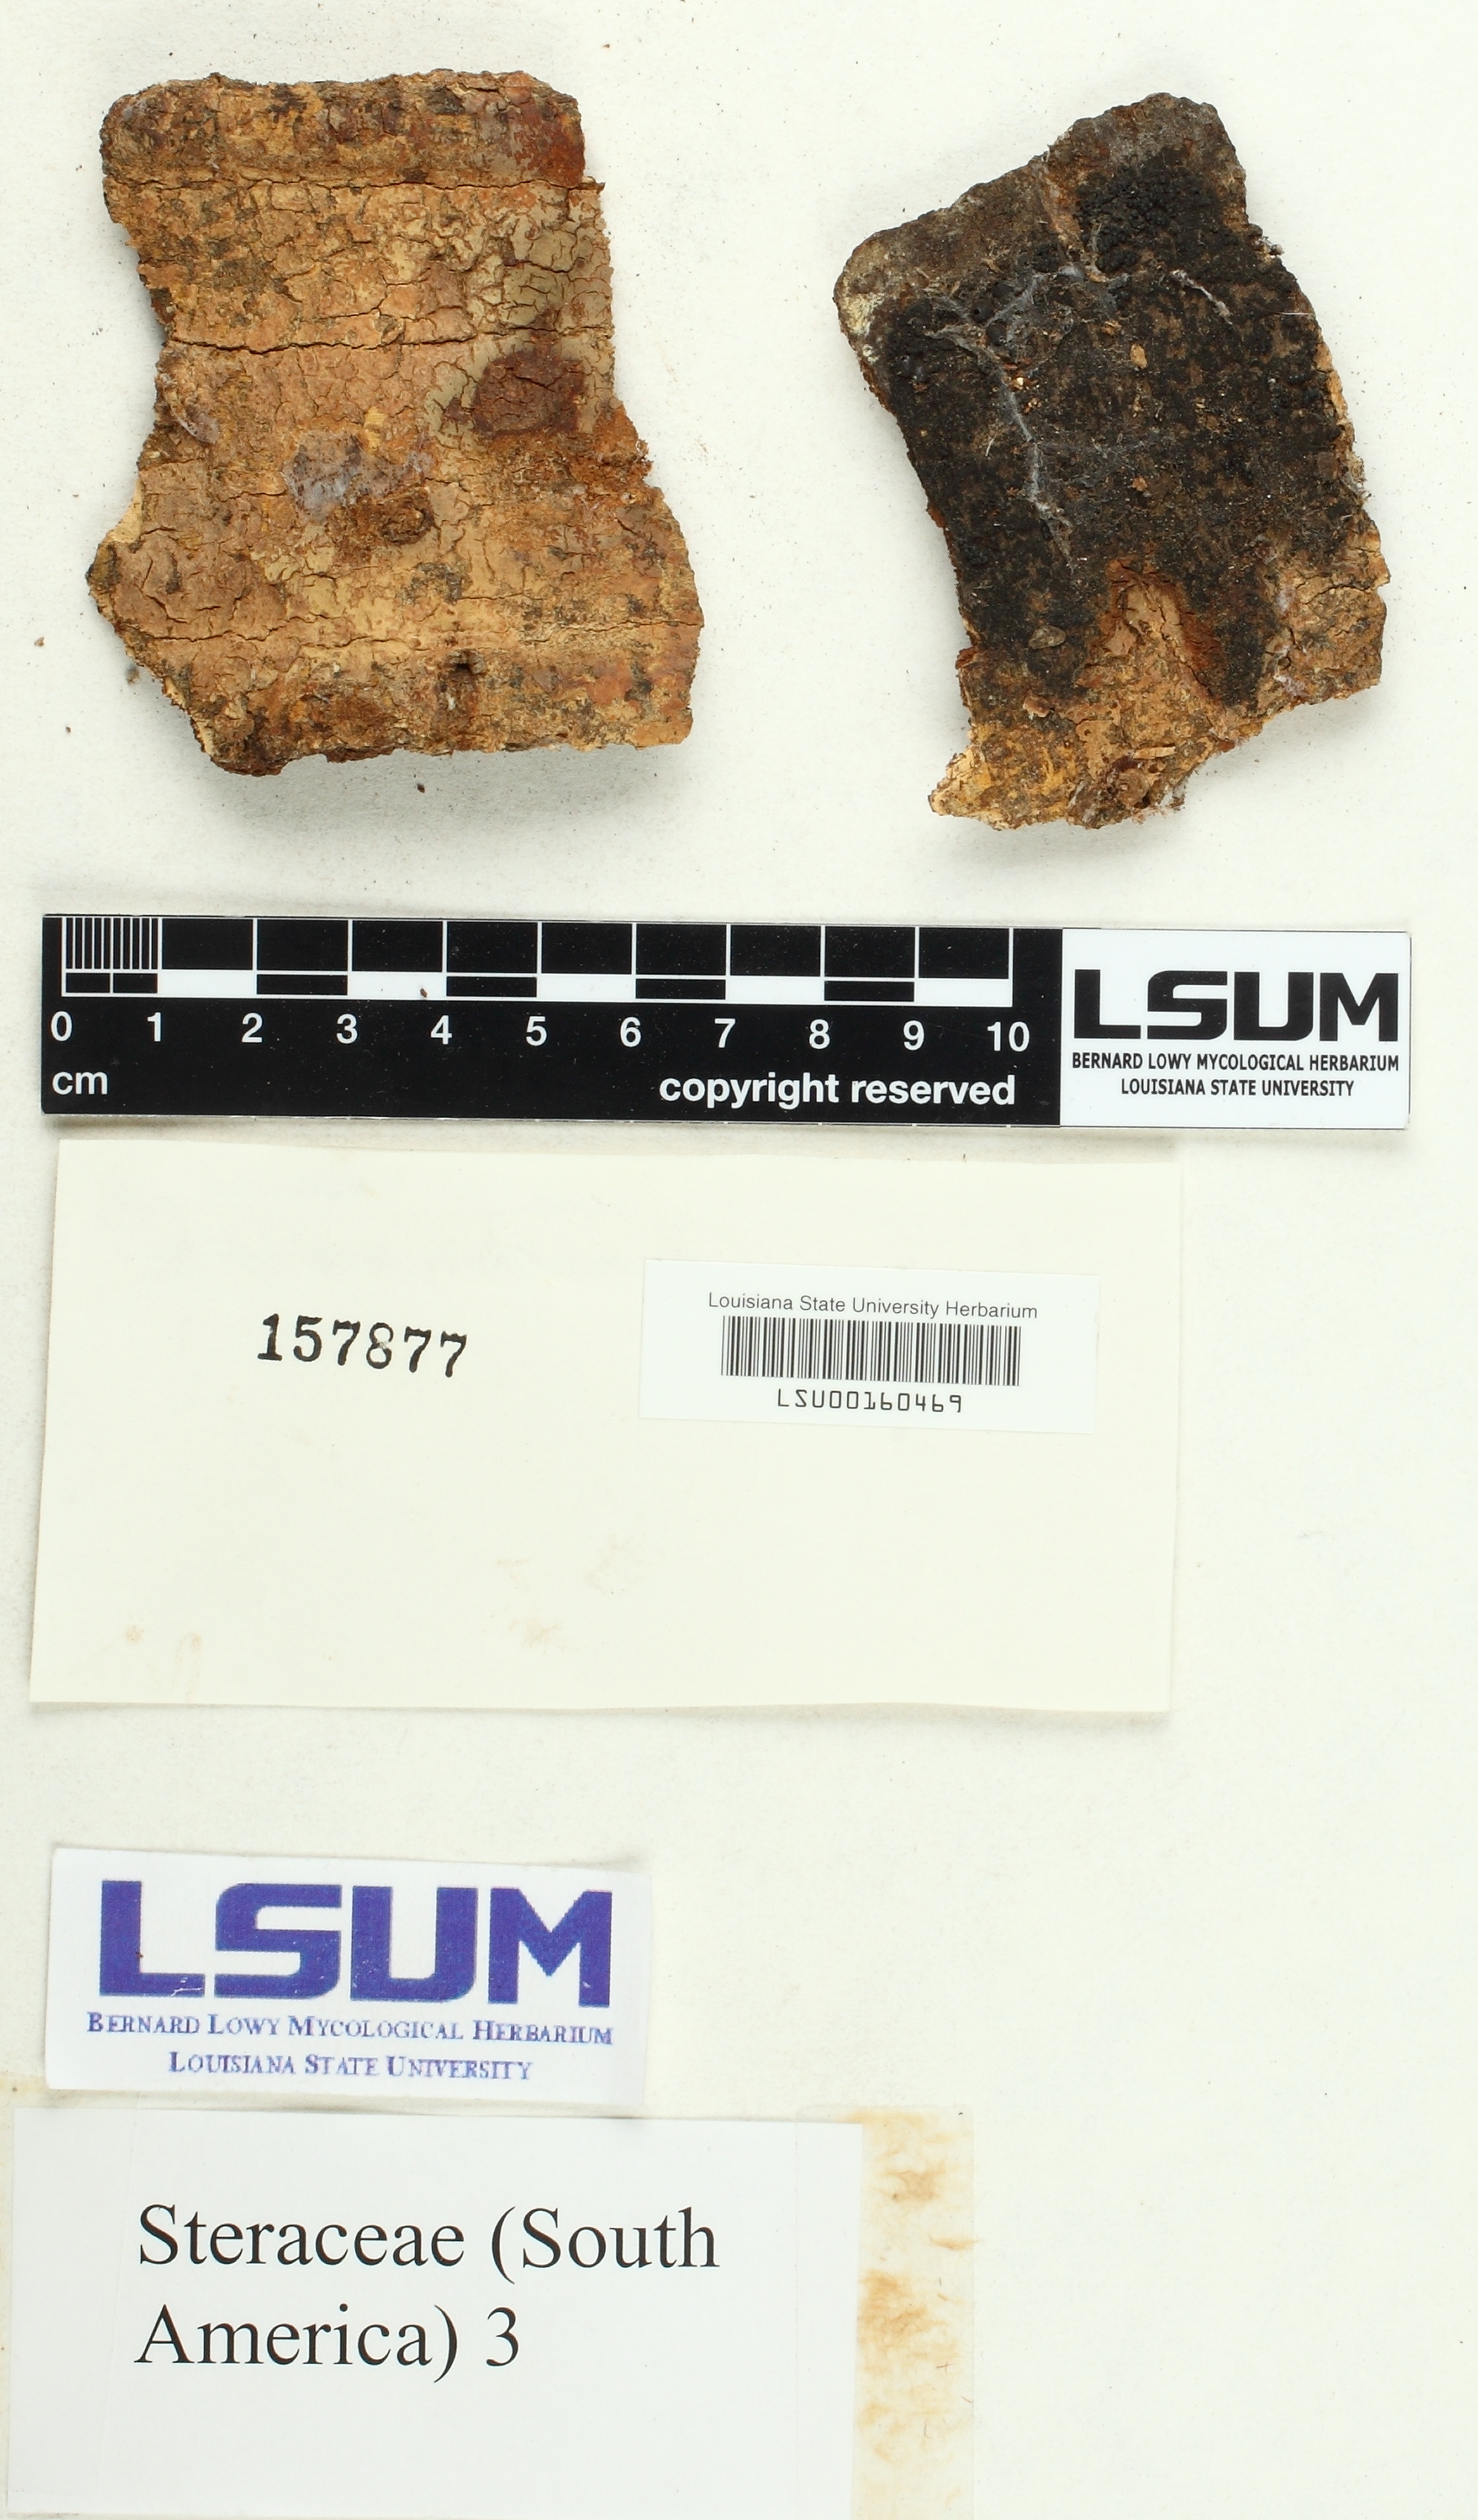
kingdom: Fungi
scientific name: Fungi
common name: Fungi
